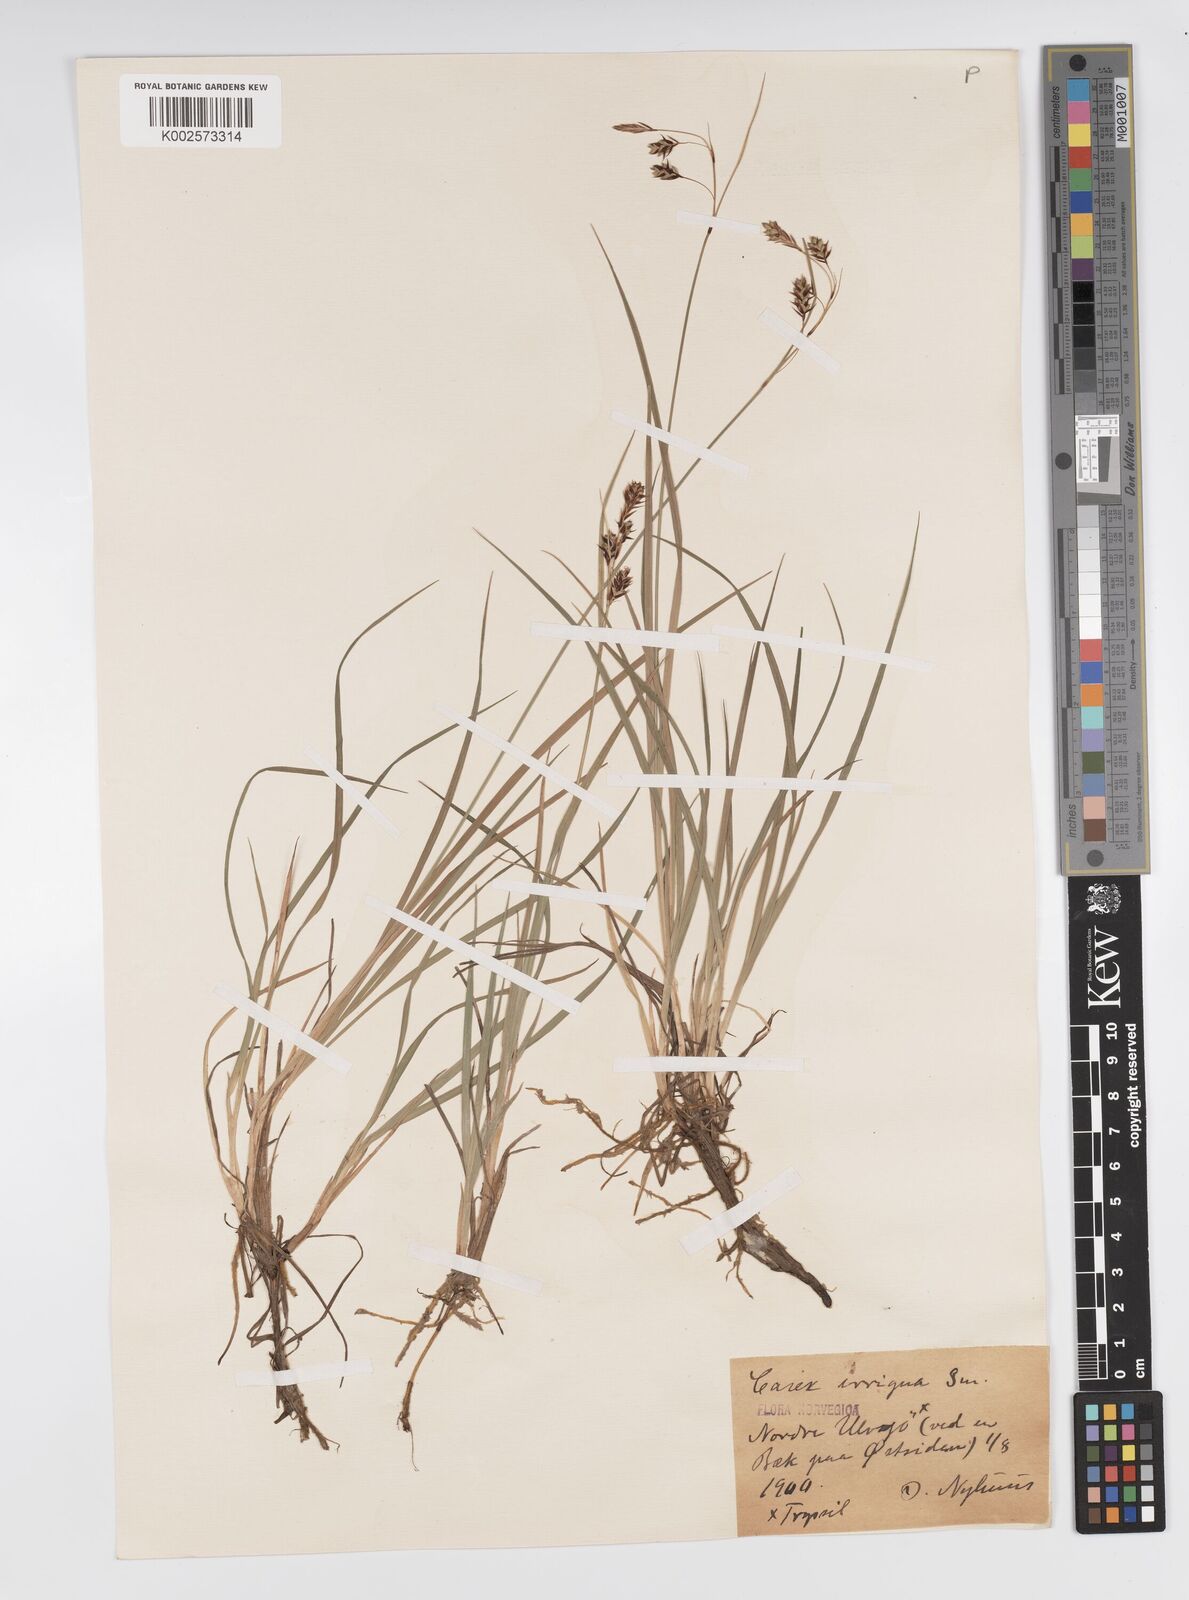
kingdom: Plantae
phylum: Tracheophyta
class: Liliopsida
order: Poales
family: Cyperaceae
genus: Carex
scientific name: Carex magellanica
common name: Bog sedge
